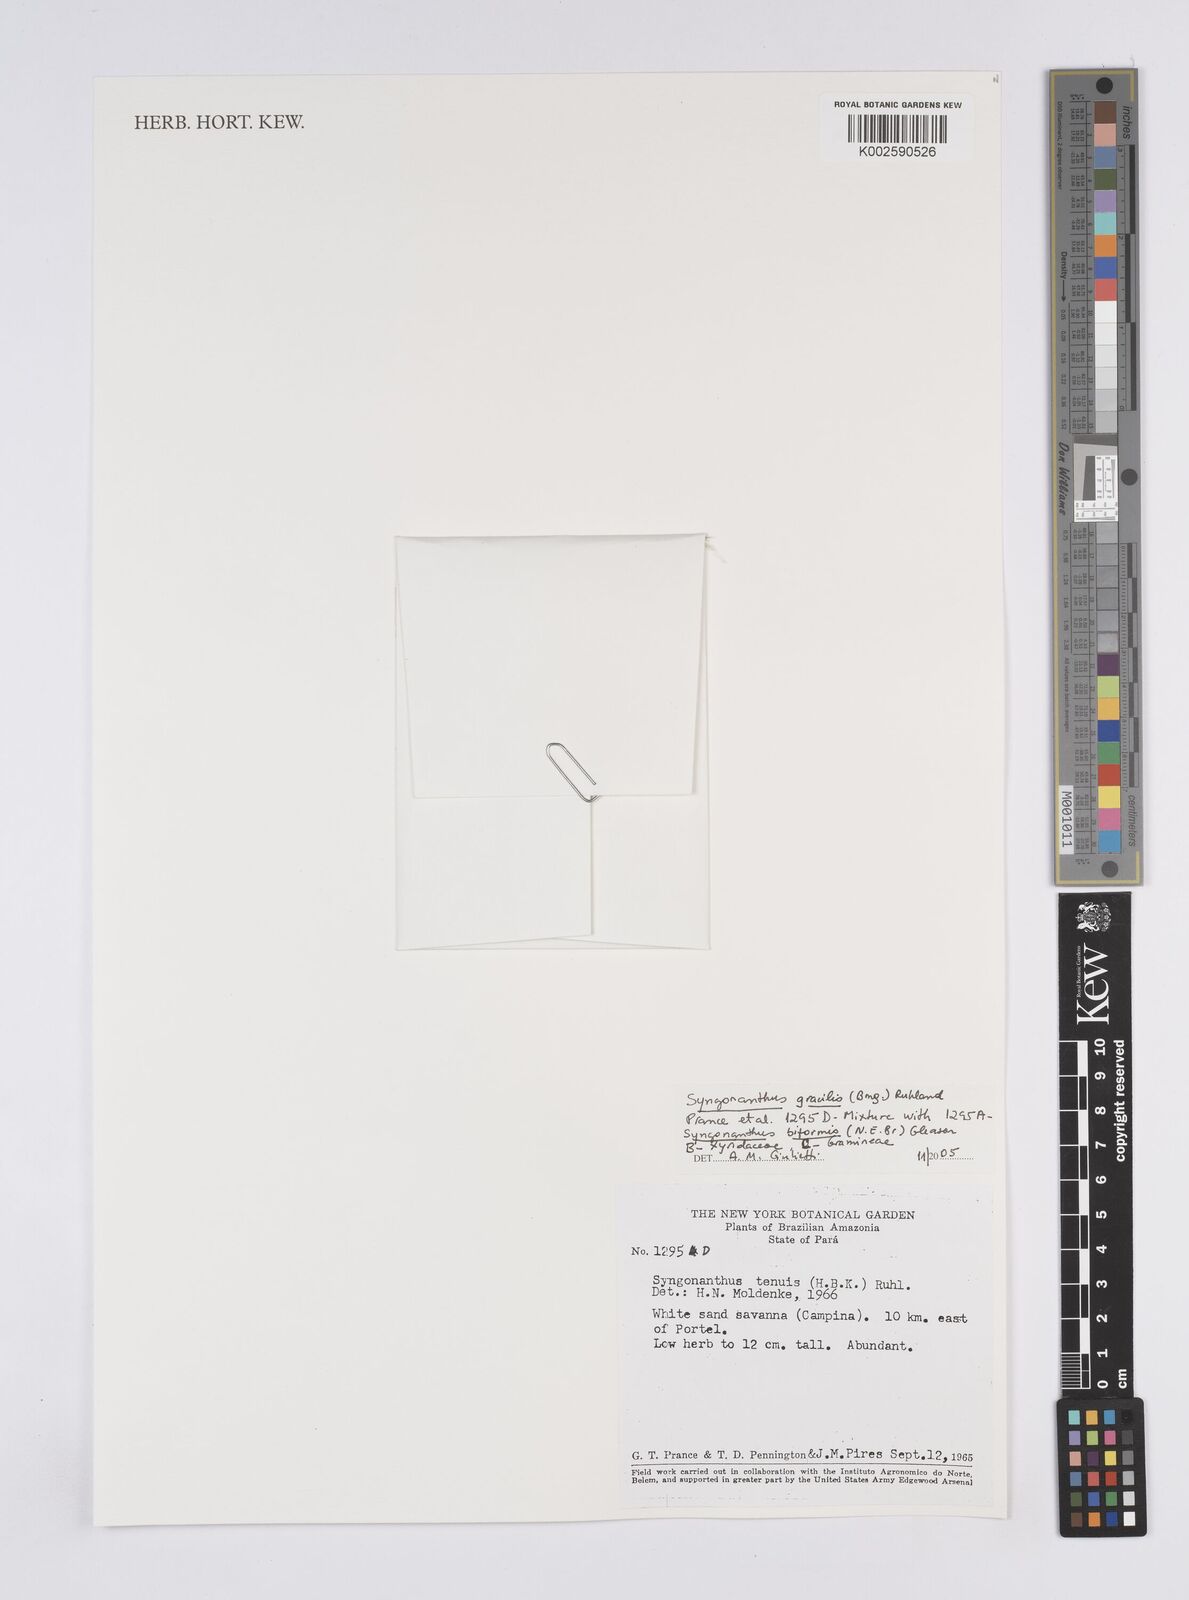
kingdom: Plantae
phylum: Tracheophyta
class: Liliopsida
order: Poales
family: Eriocaulaceae
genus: Syngonanthus
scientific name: Syngonanthus tenuis
